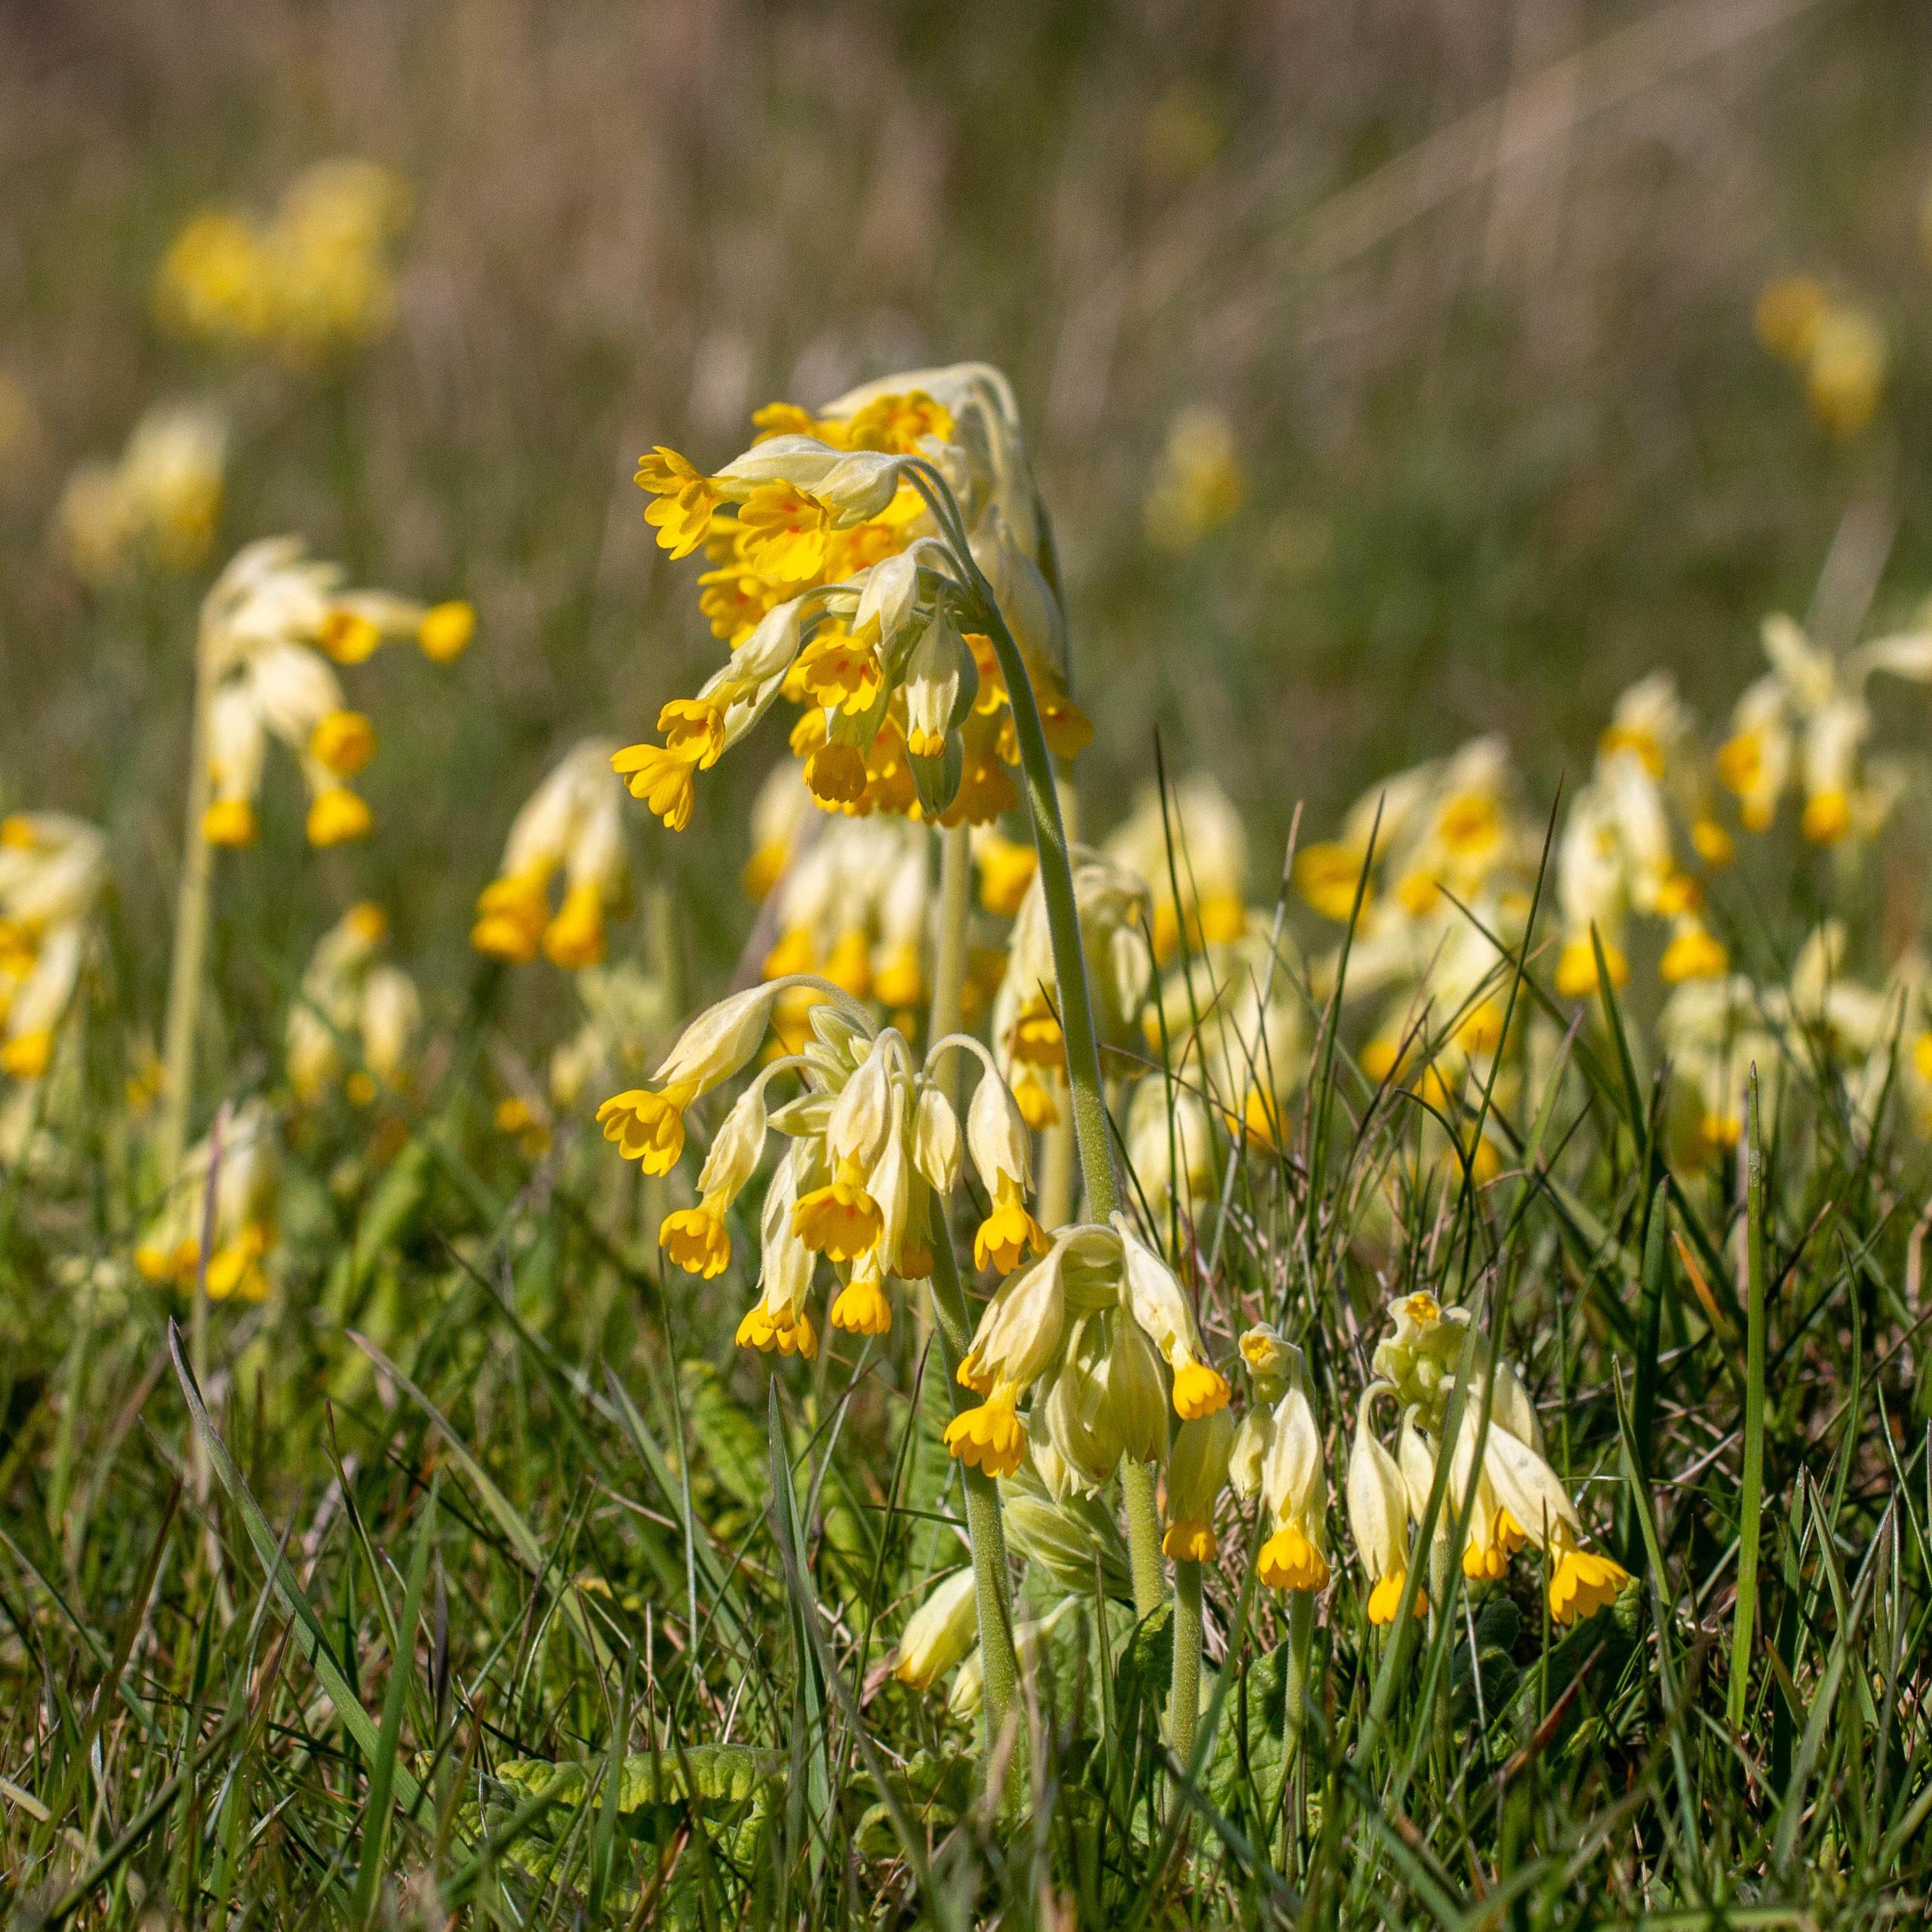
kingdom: Plantae
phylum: Tracheophyta
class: Magnoliopsida
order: Ericales
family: Primulaceae
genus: Primula
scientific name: Primula veris
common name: Hulkravet kodriver
